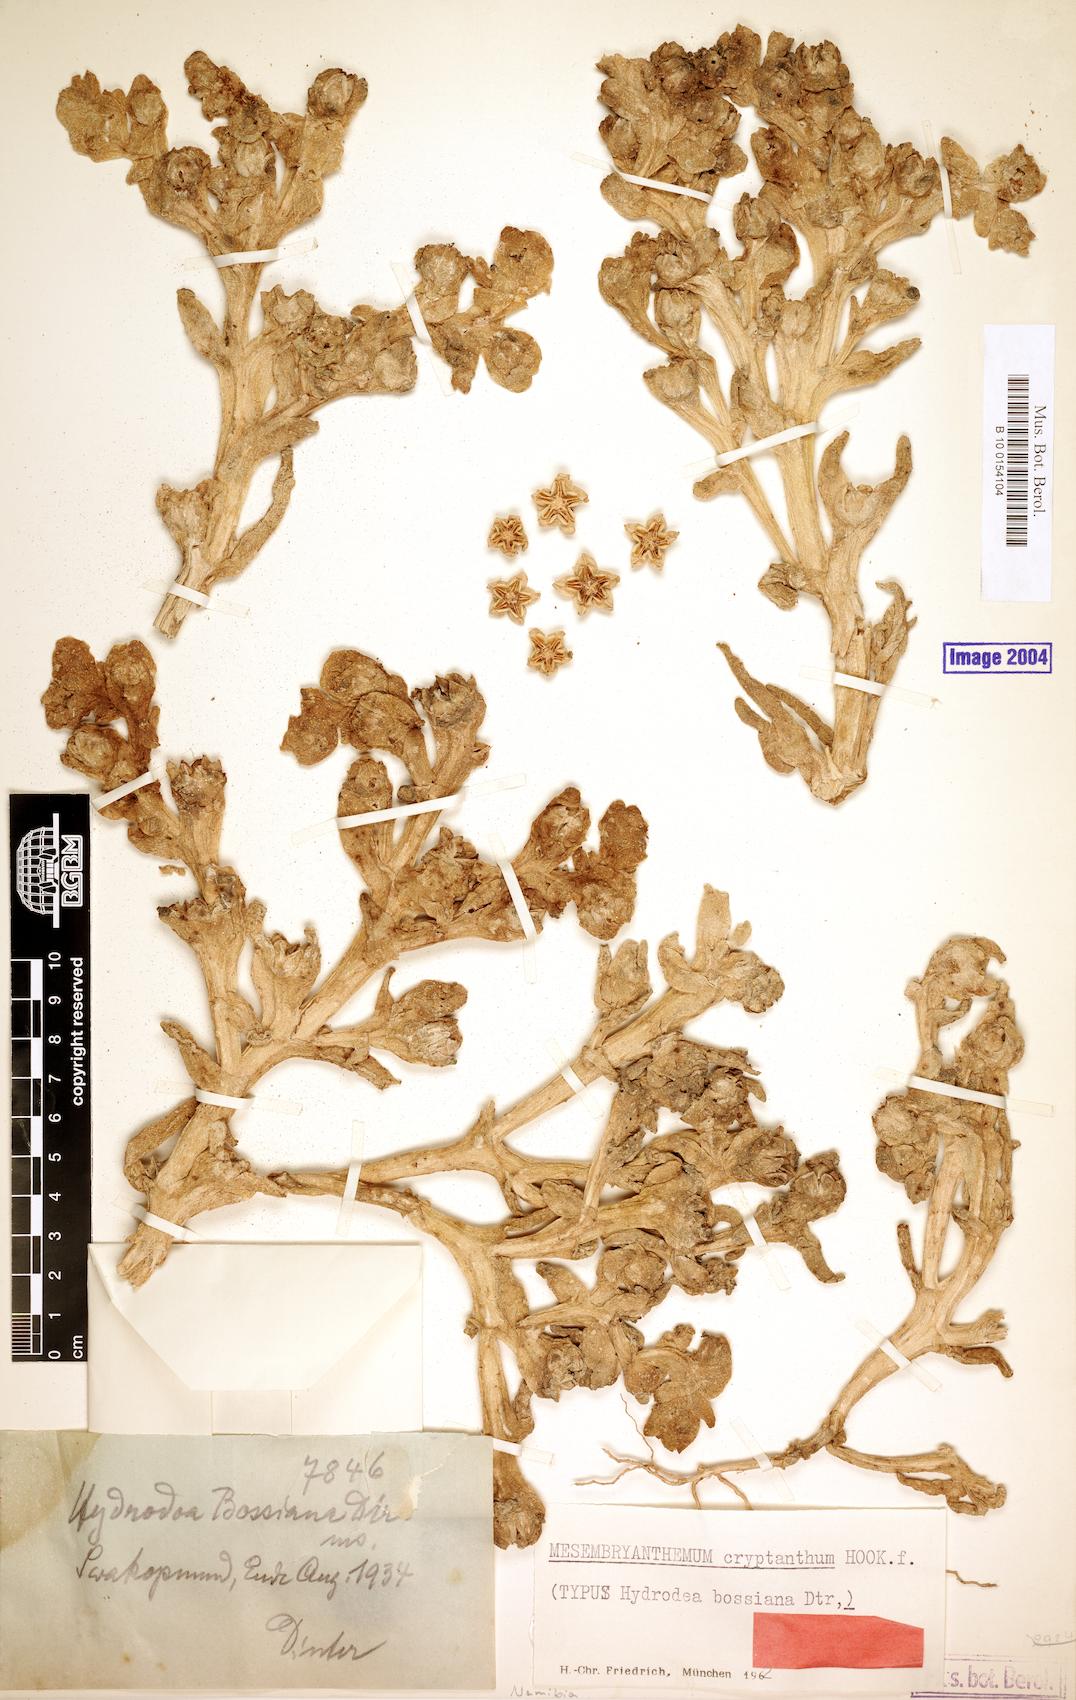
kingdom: Plantae
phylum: Tracheophyta
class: Magnoliopsida
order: Caryophyllales
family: Aizoaceae
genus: Mesembryanthemum
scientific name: Mesembryanthemum cryptanthum
